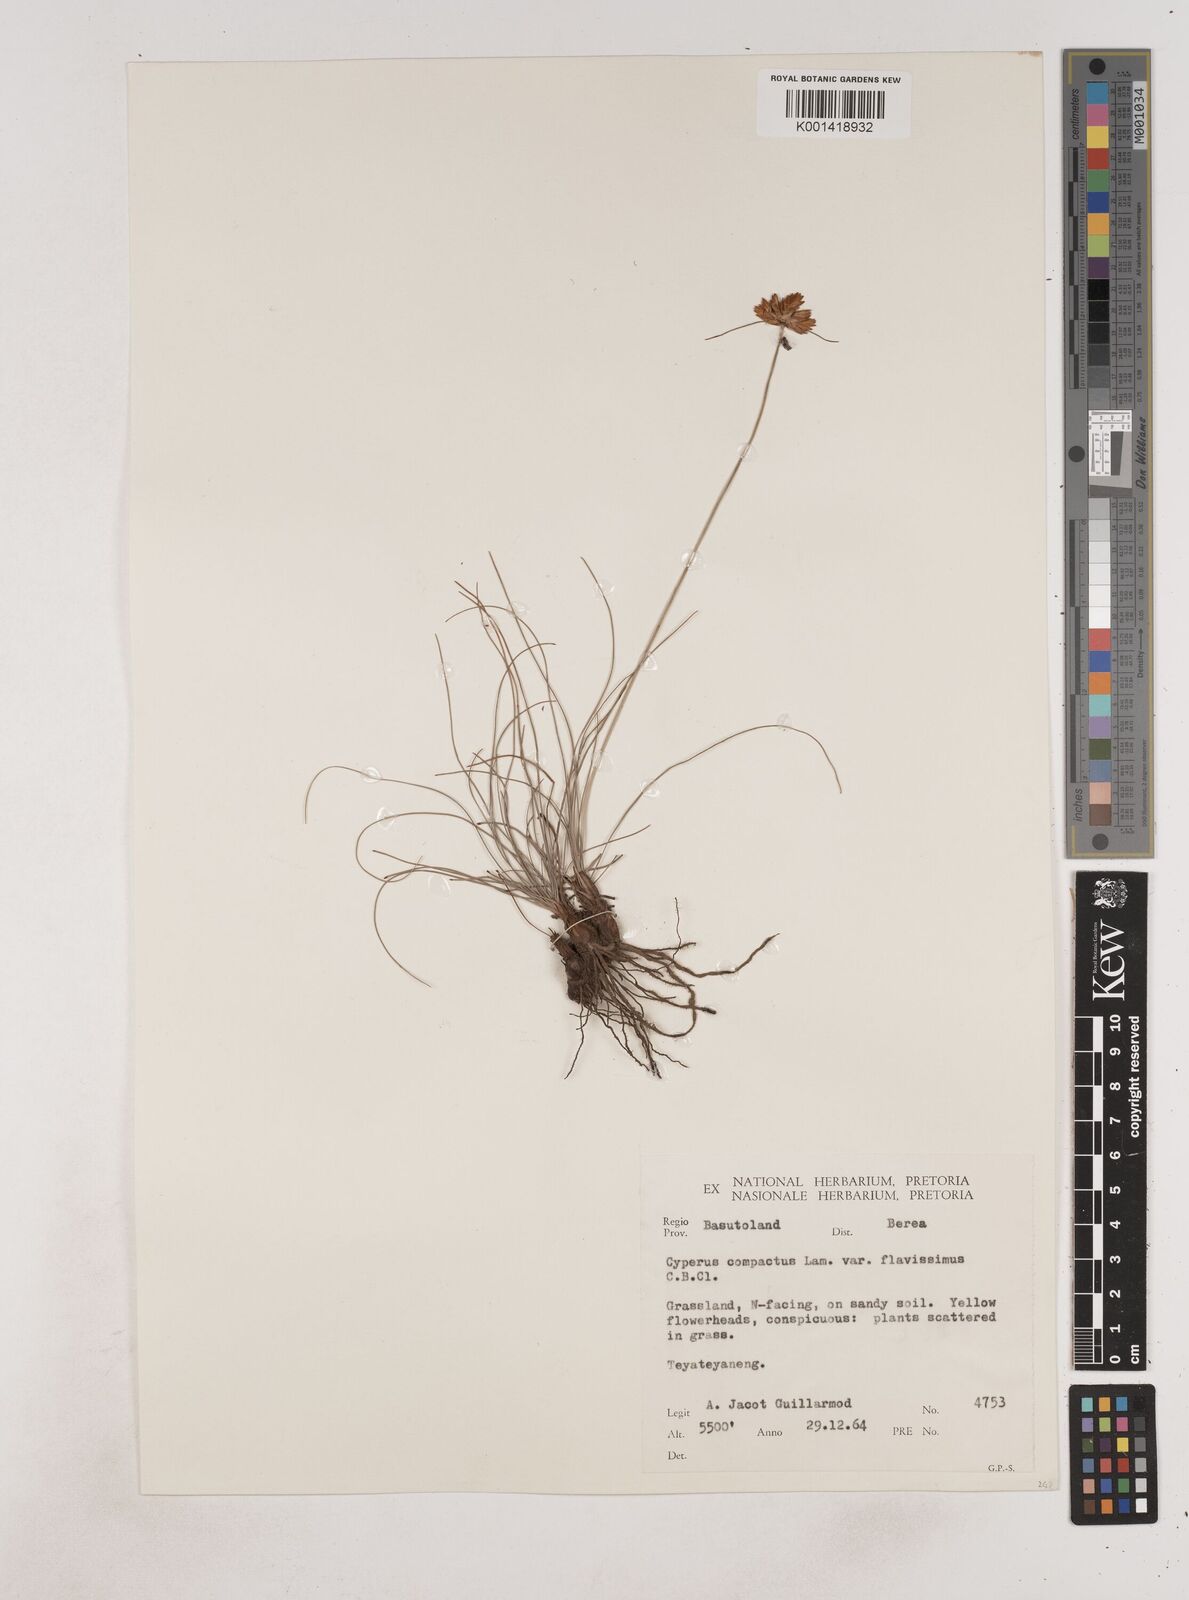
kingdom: Plantae
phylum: Tracheophyta
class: Liliopsida
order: Poales
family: Cyperaceae
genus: Cyperus
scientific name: Cyperus sphaerocephalus
